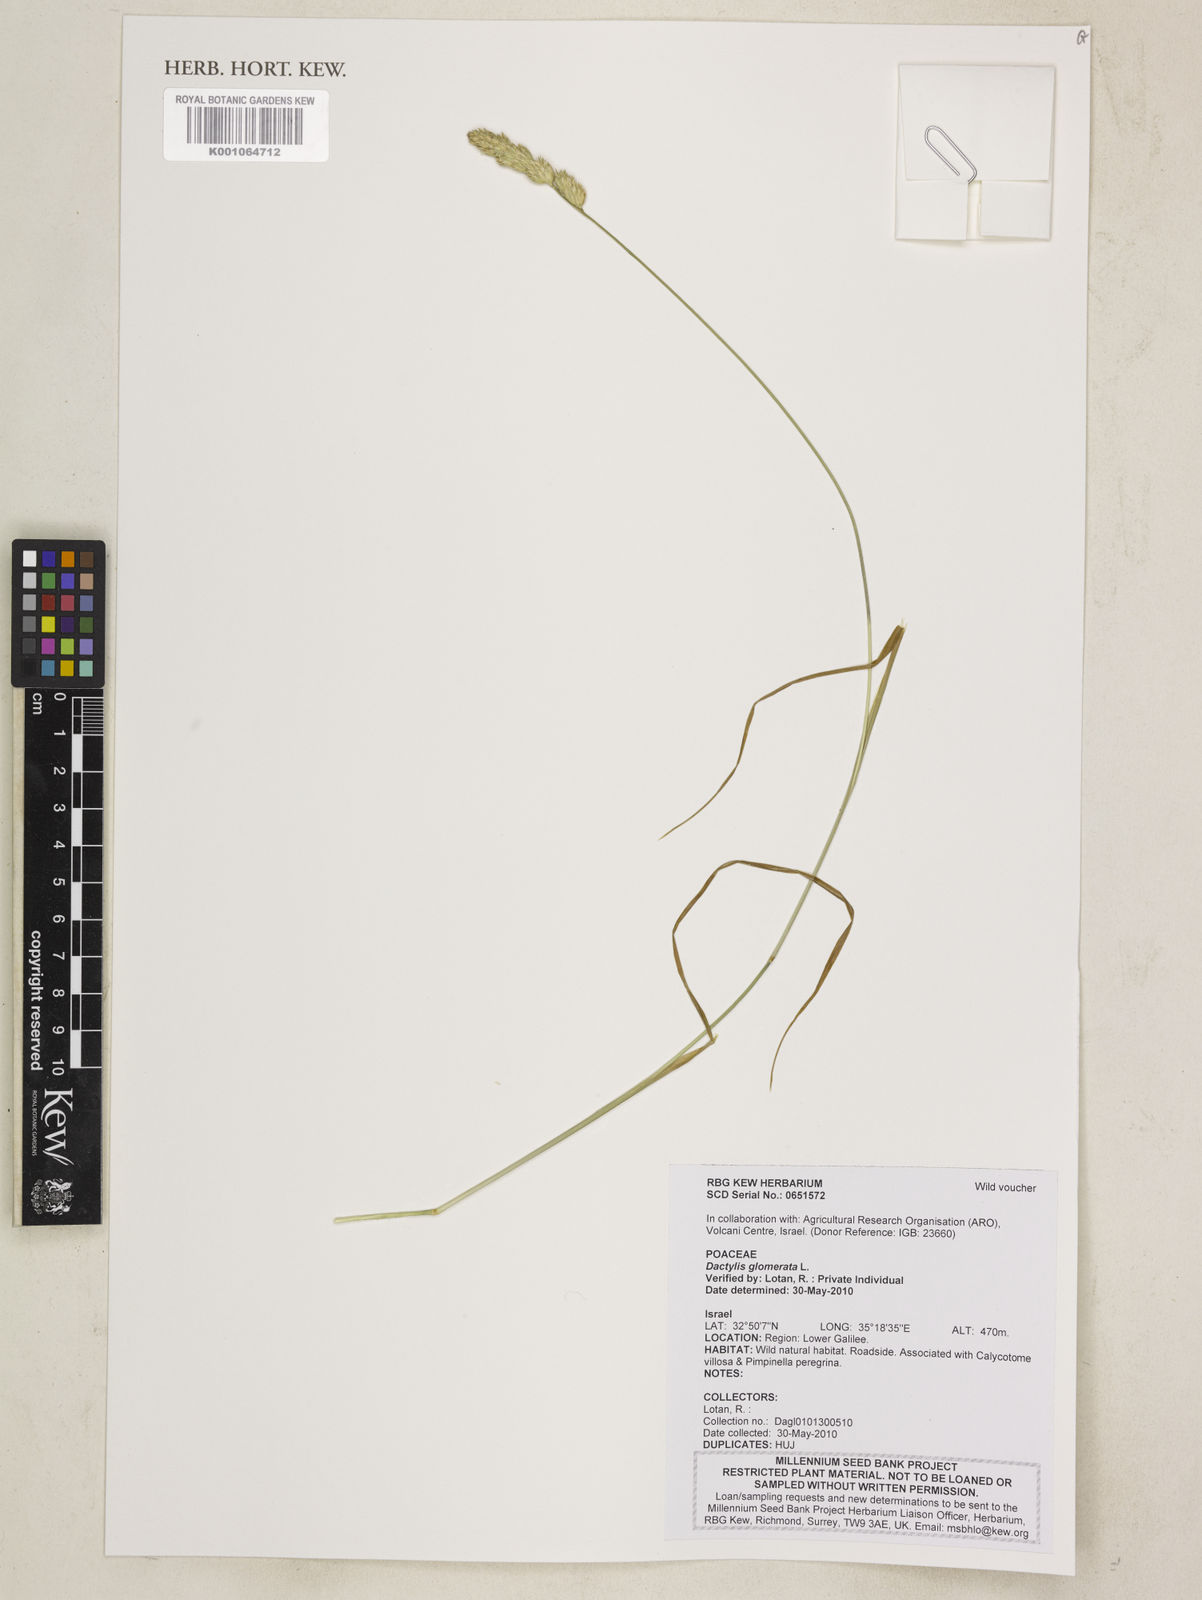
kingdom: Plantae
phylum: Tracheophyta
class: Liliopsida
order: Poales
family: Poaceae
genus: Dactylis
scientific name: Dactylis glomerata
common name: Orchardgrass
